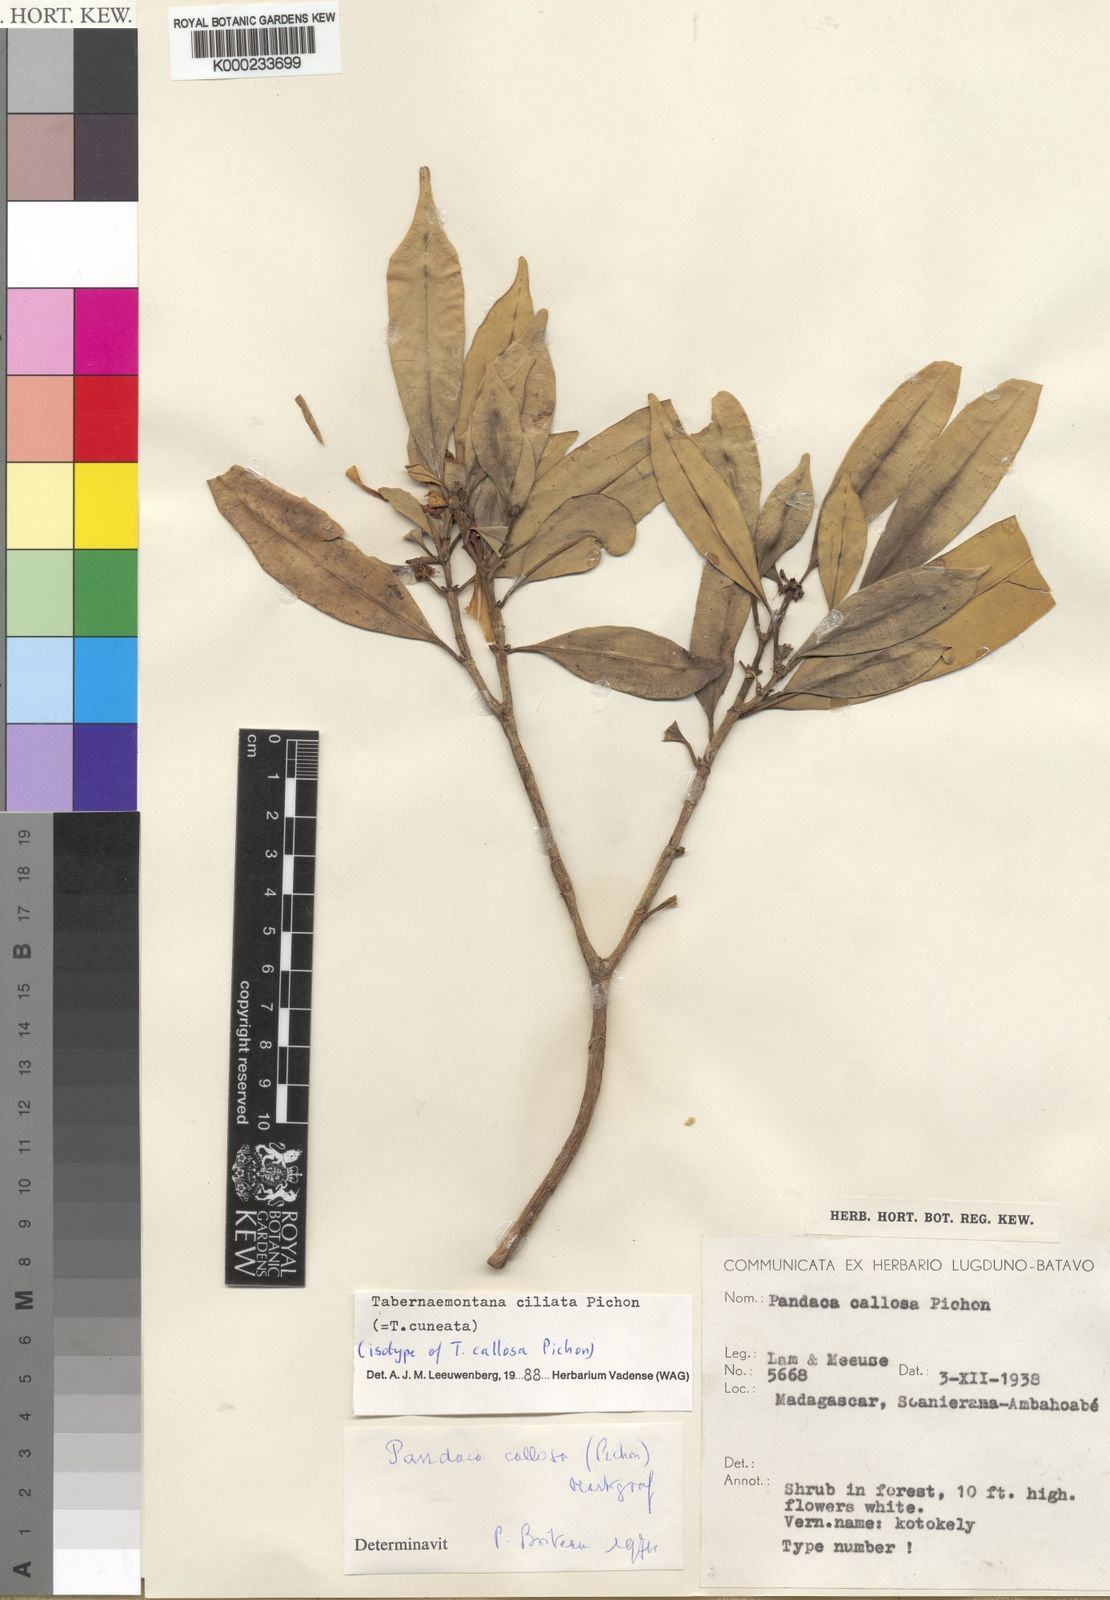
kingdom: Plantae
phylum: Tracheophyta
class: Magnoliopsida
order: Gentianales
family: Apocynaceae
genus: Tabernaemontana
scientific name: Tabernaemontana ciliata
